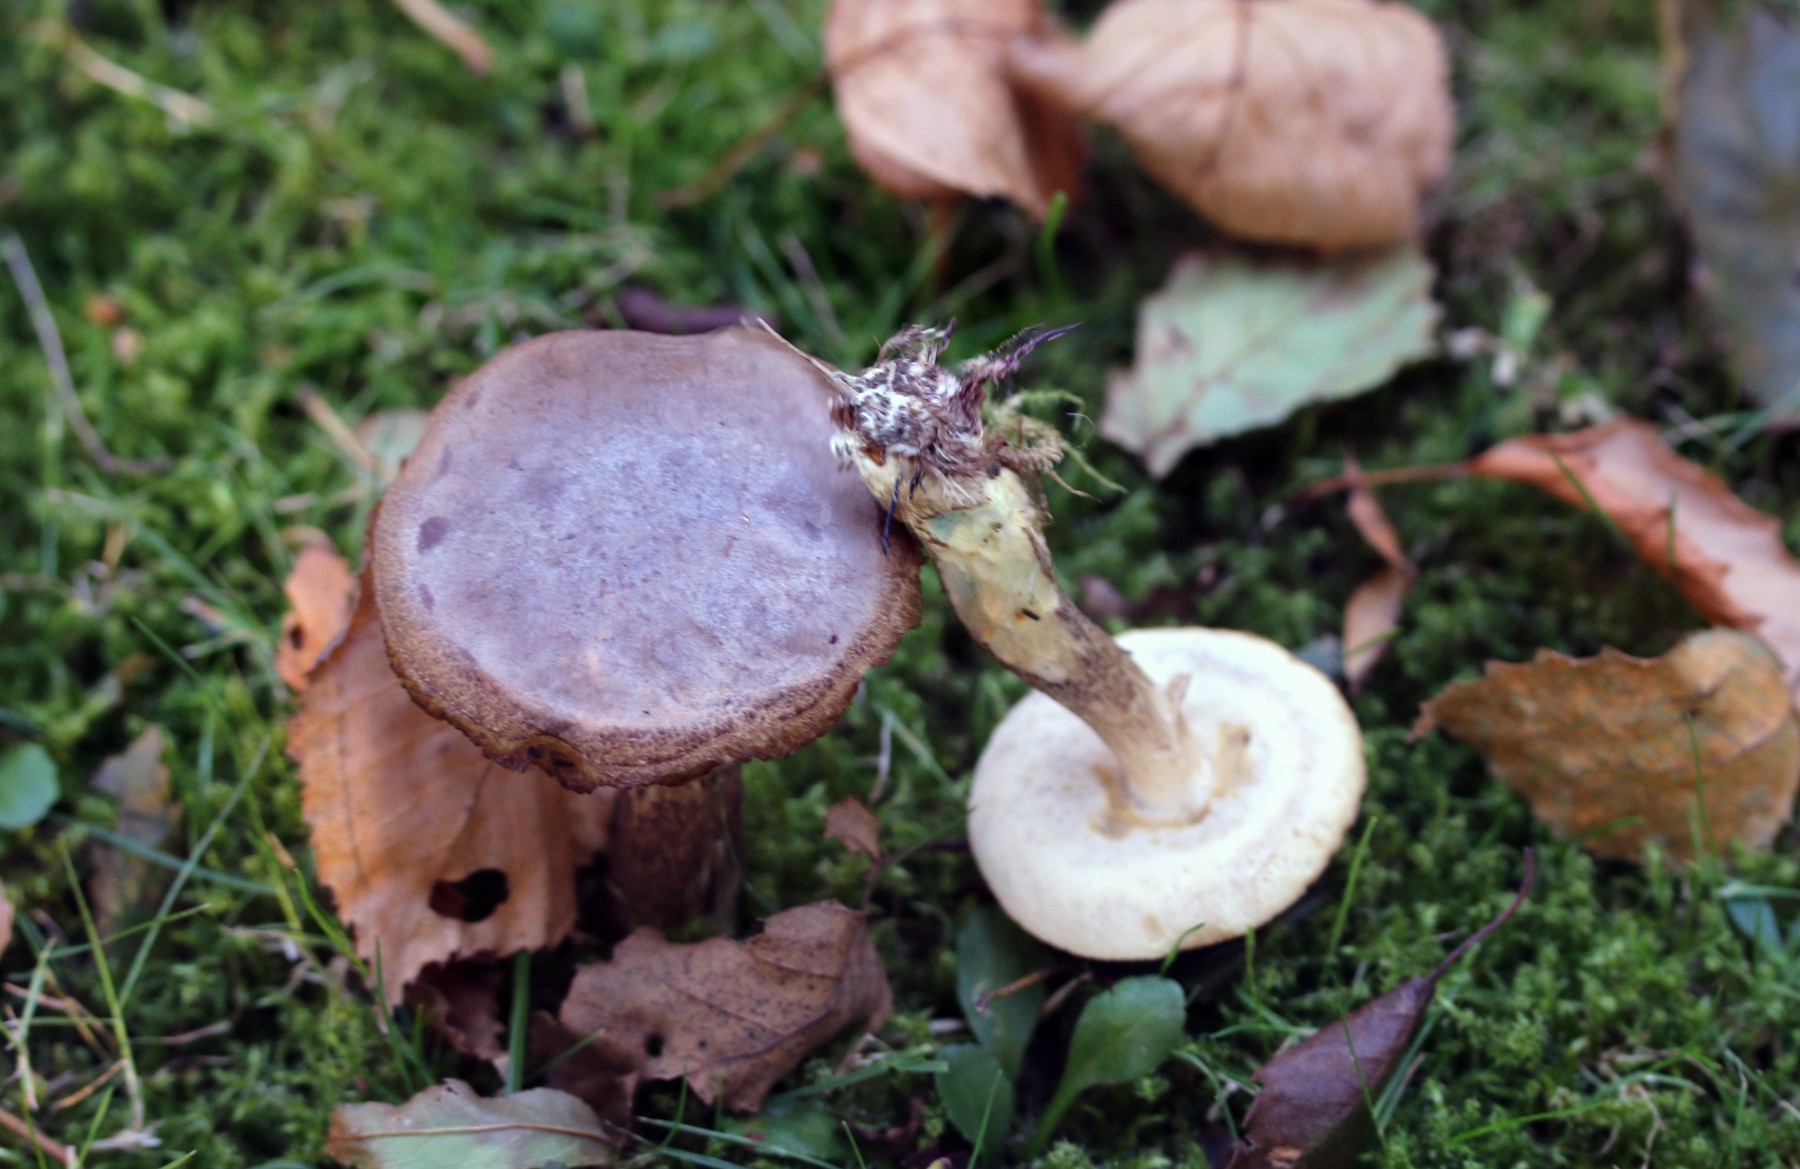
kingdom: Fungi
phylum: Basidiomycota
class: Agaricomycetes
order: Boletales
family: Boletaceae
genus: Leccinum
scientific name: Leccinum schistophilum
